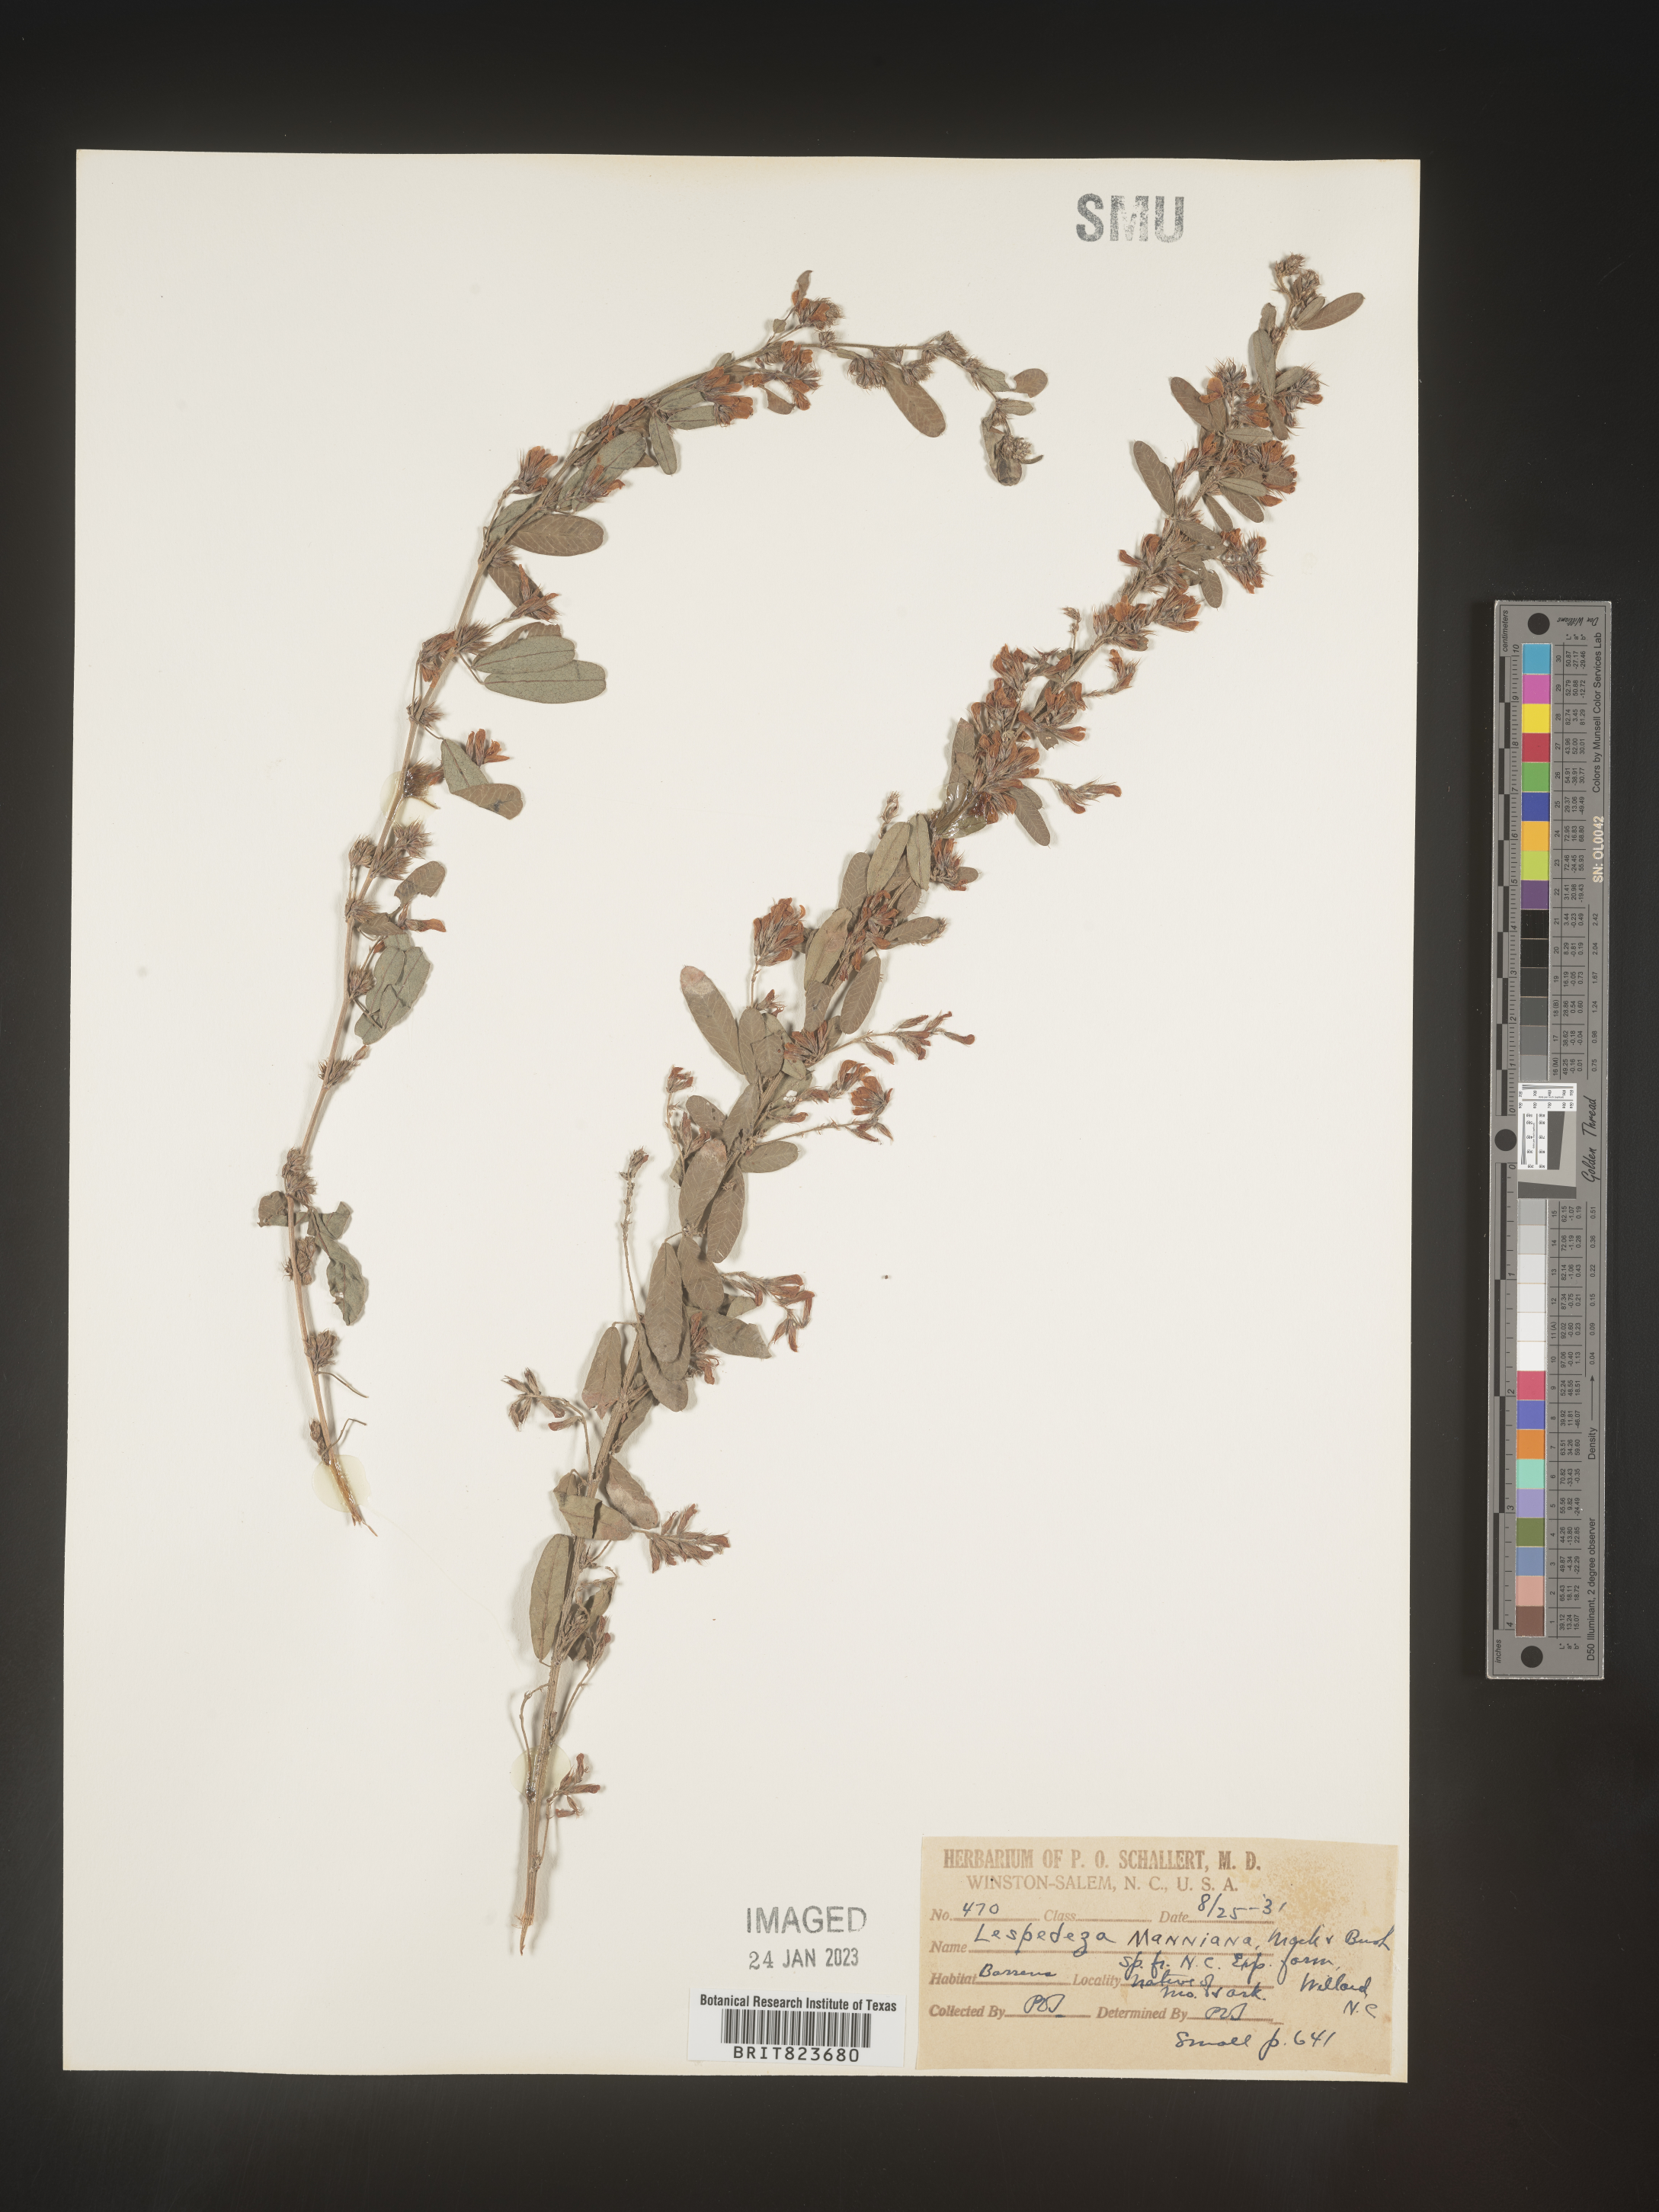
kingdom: Plantae
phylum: Tracheophyta
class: Magnoliopsida
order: Fabales
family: Fabaceae
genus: Lespedeza
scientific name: Lespedeza
